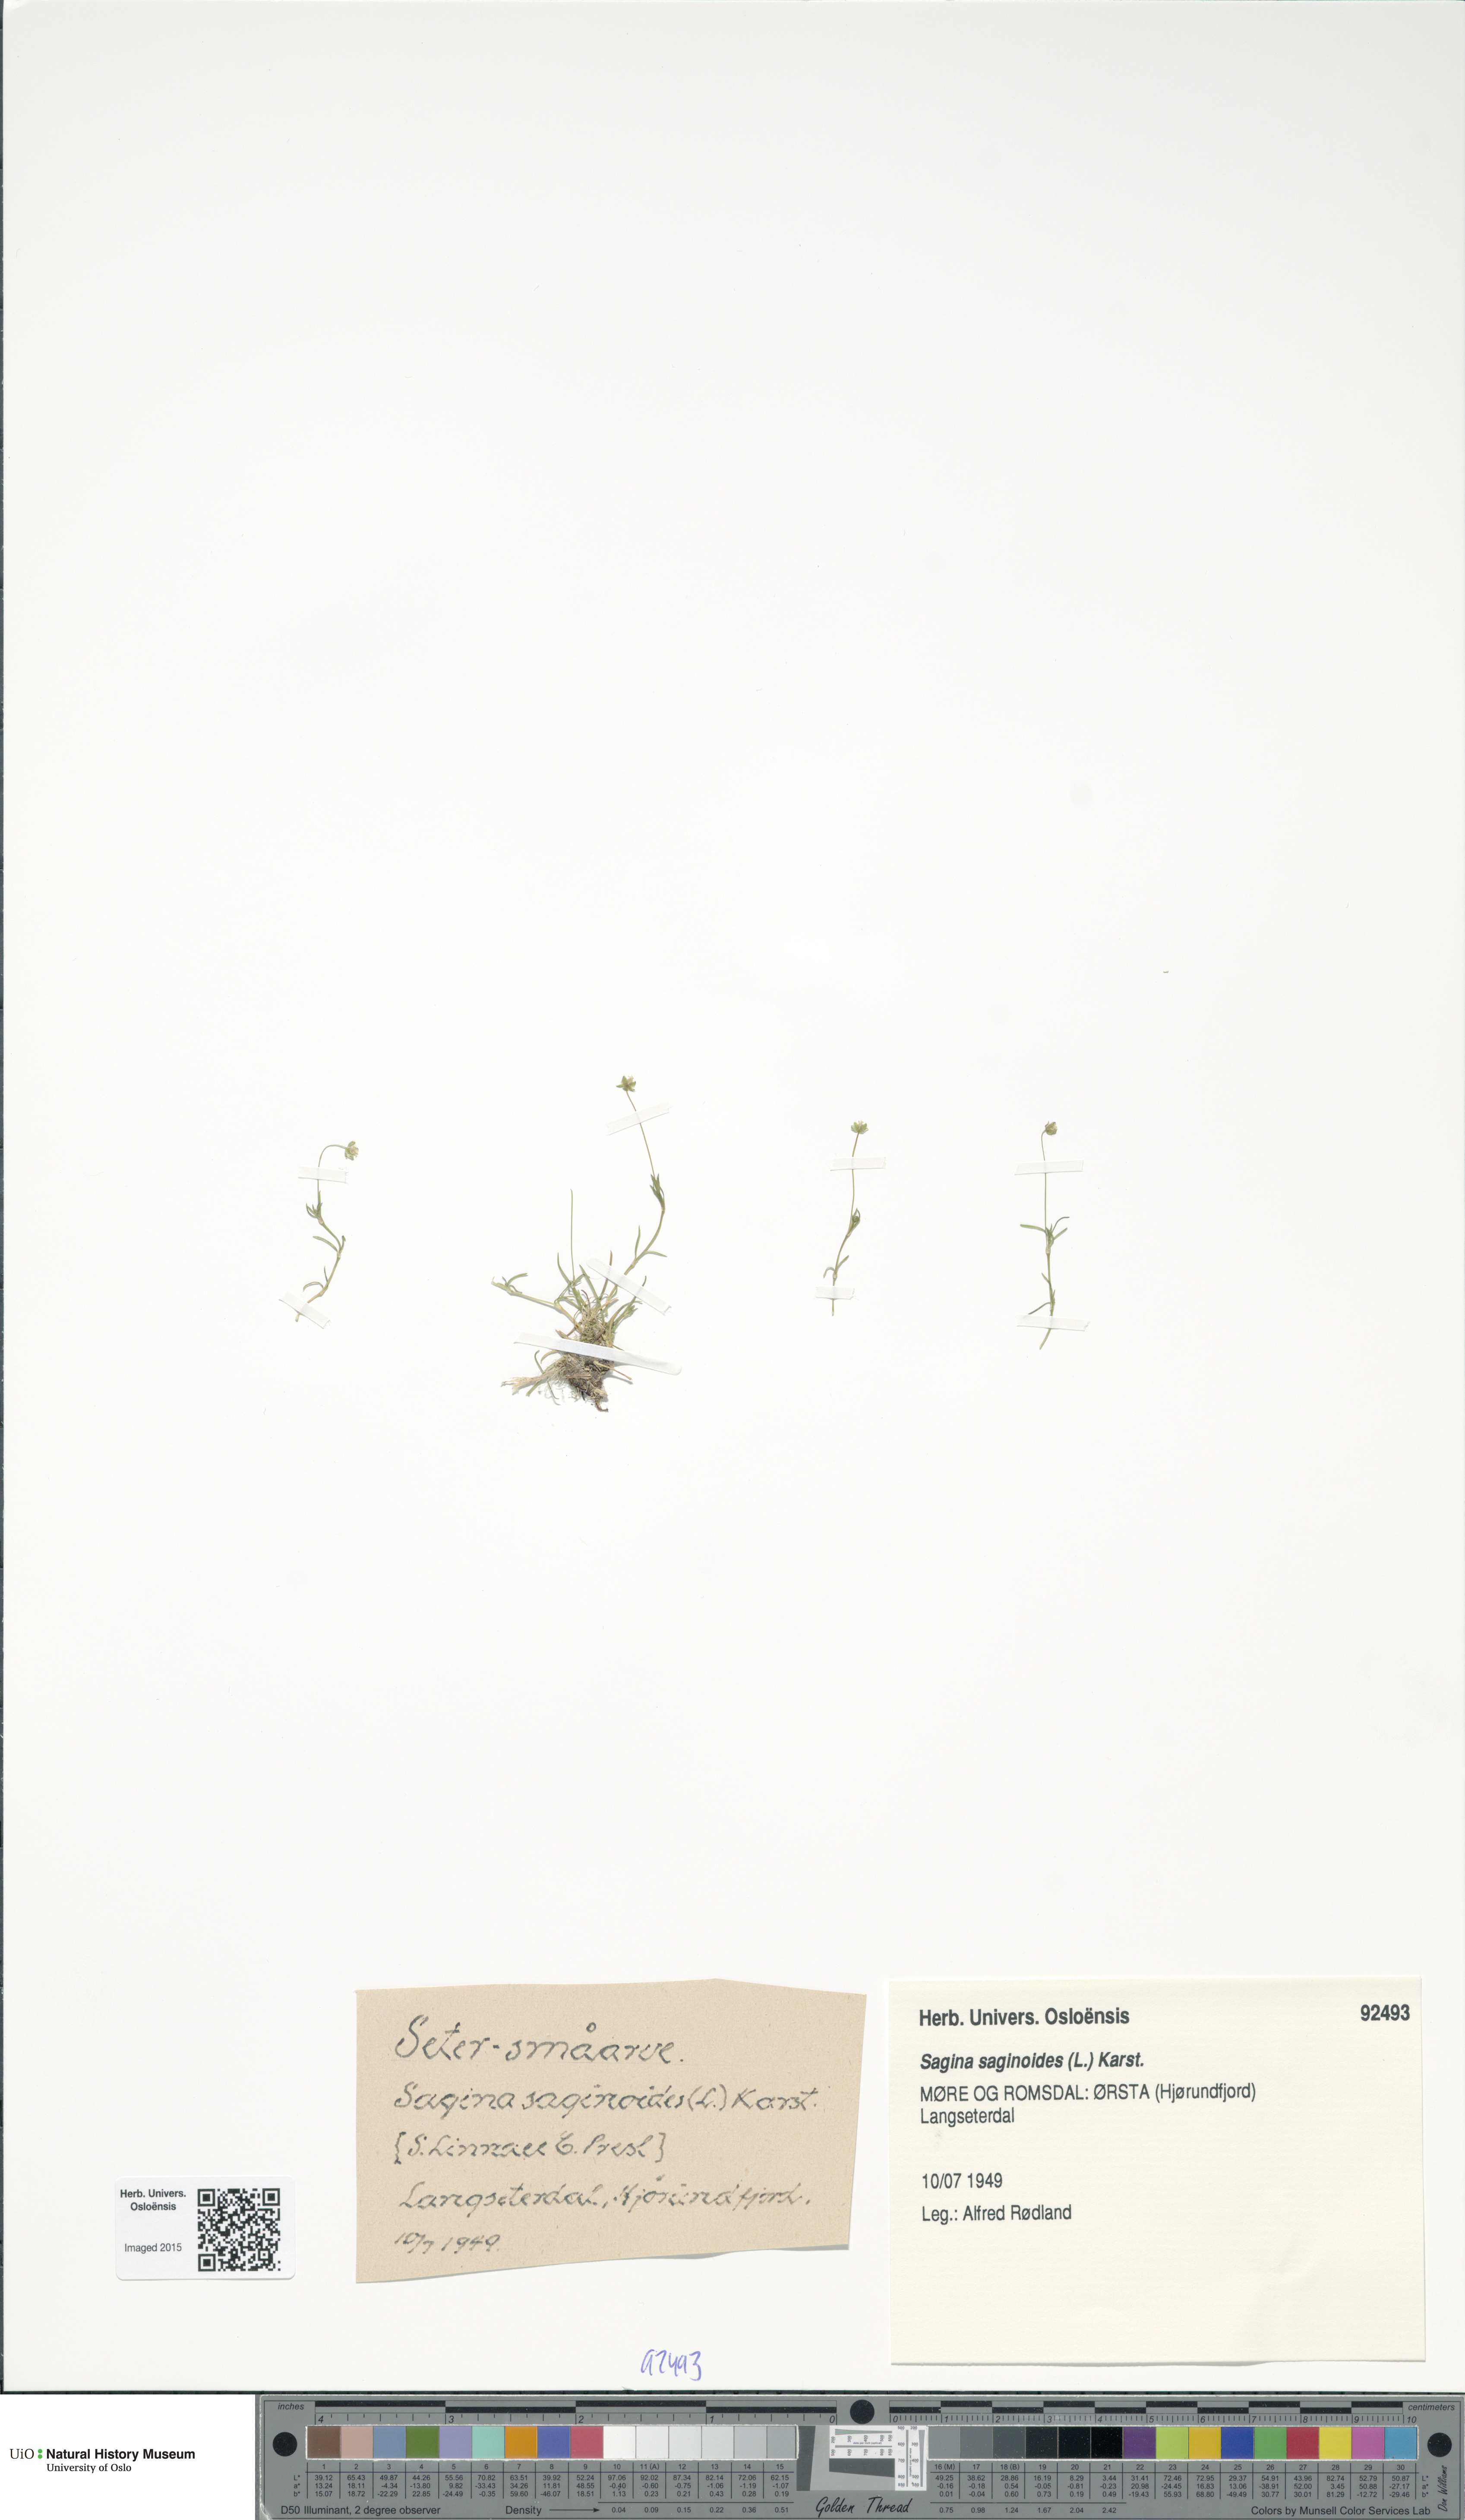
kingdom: Plantae
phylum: Tracheophyta
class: Magnoliopsida
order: Caryophyllales
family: Caryophyllaceae
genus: Sagina
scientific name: Sagina saginoides
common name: Alpine pearlwort
